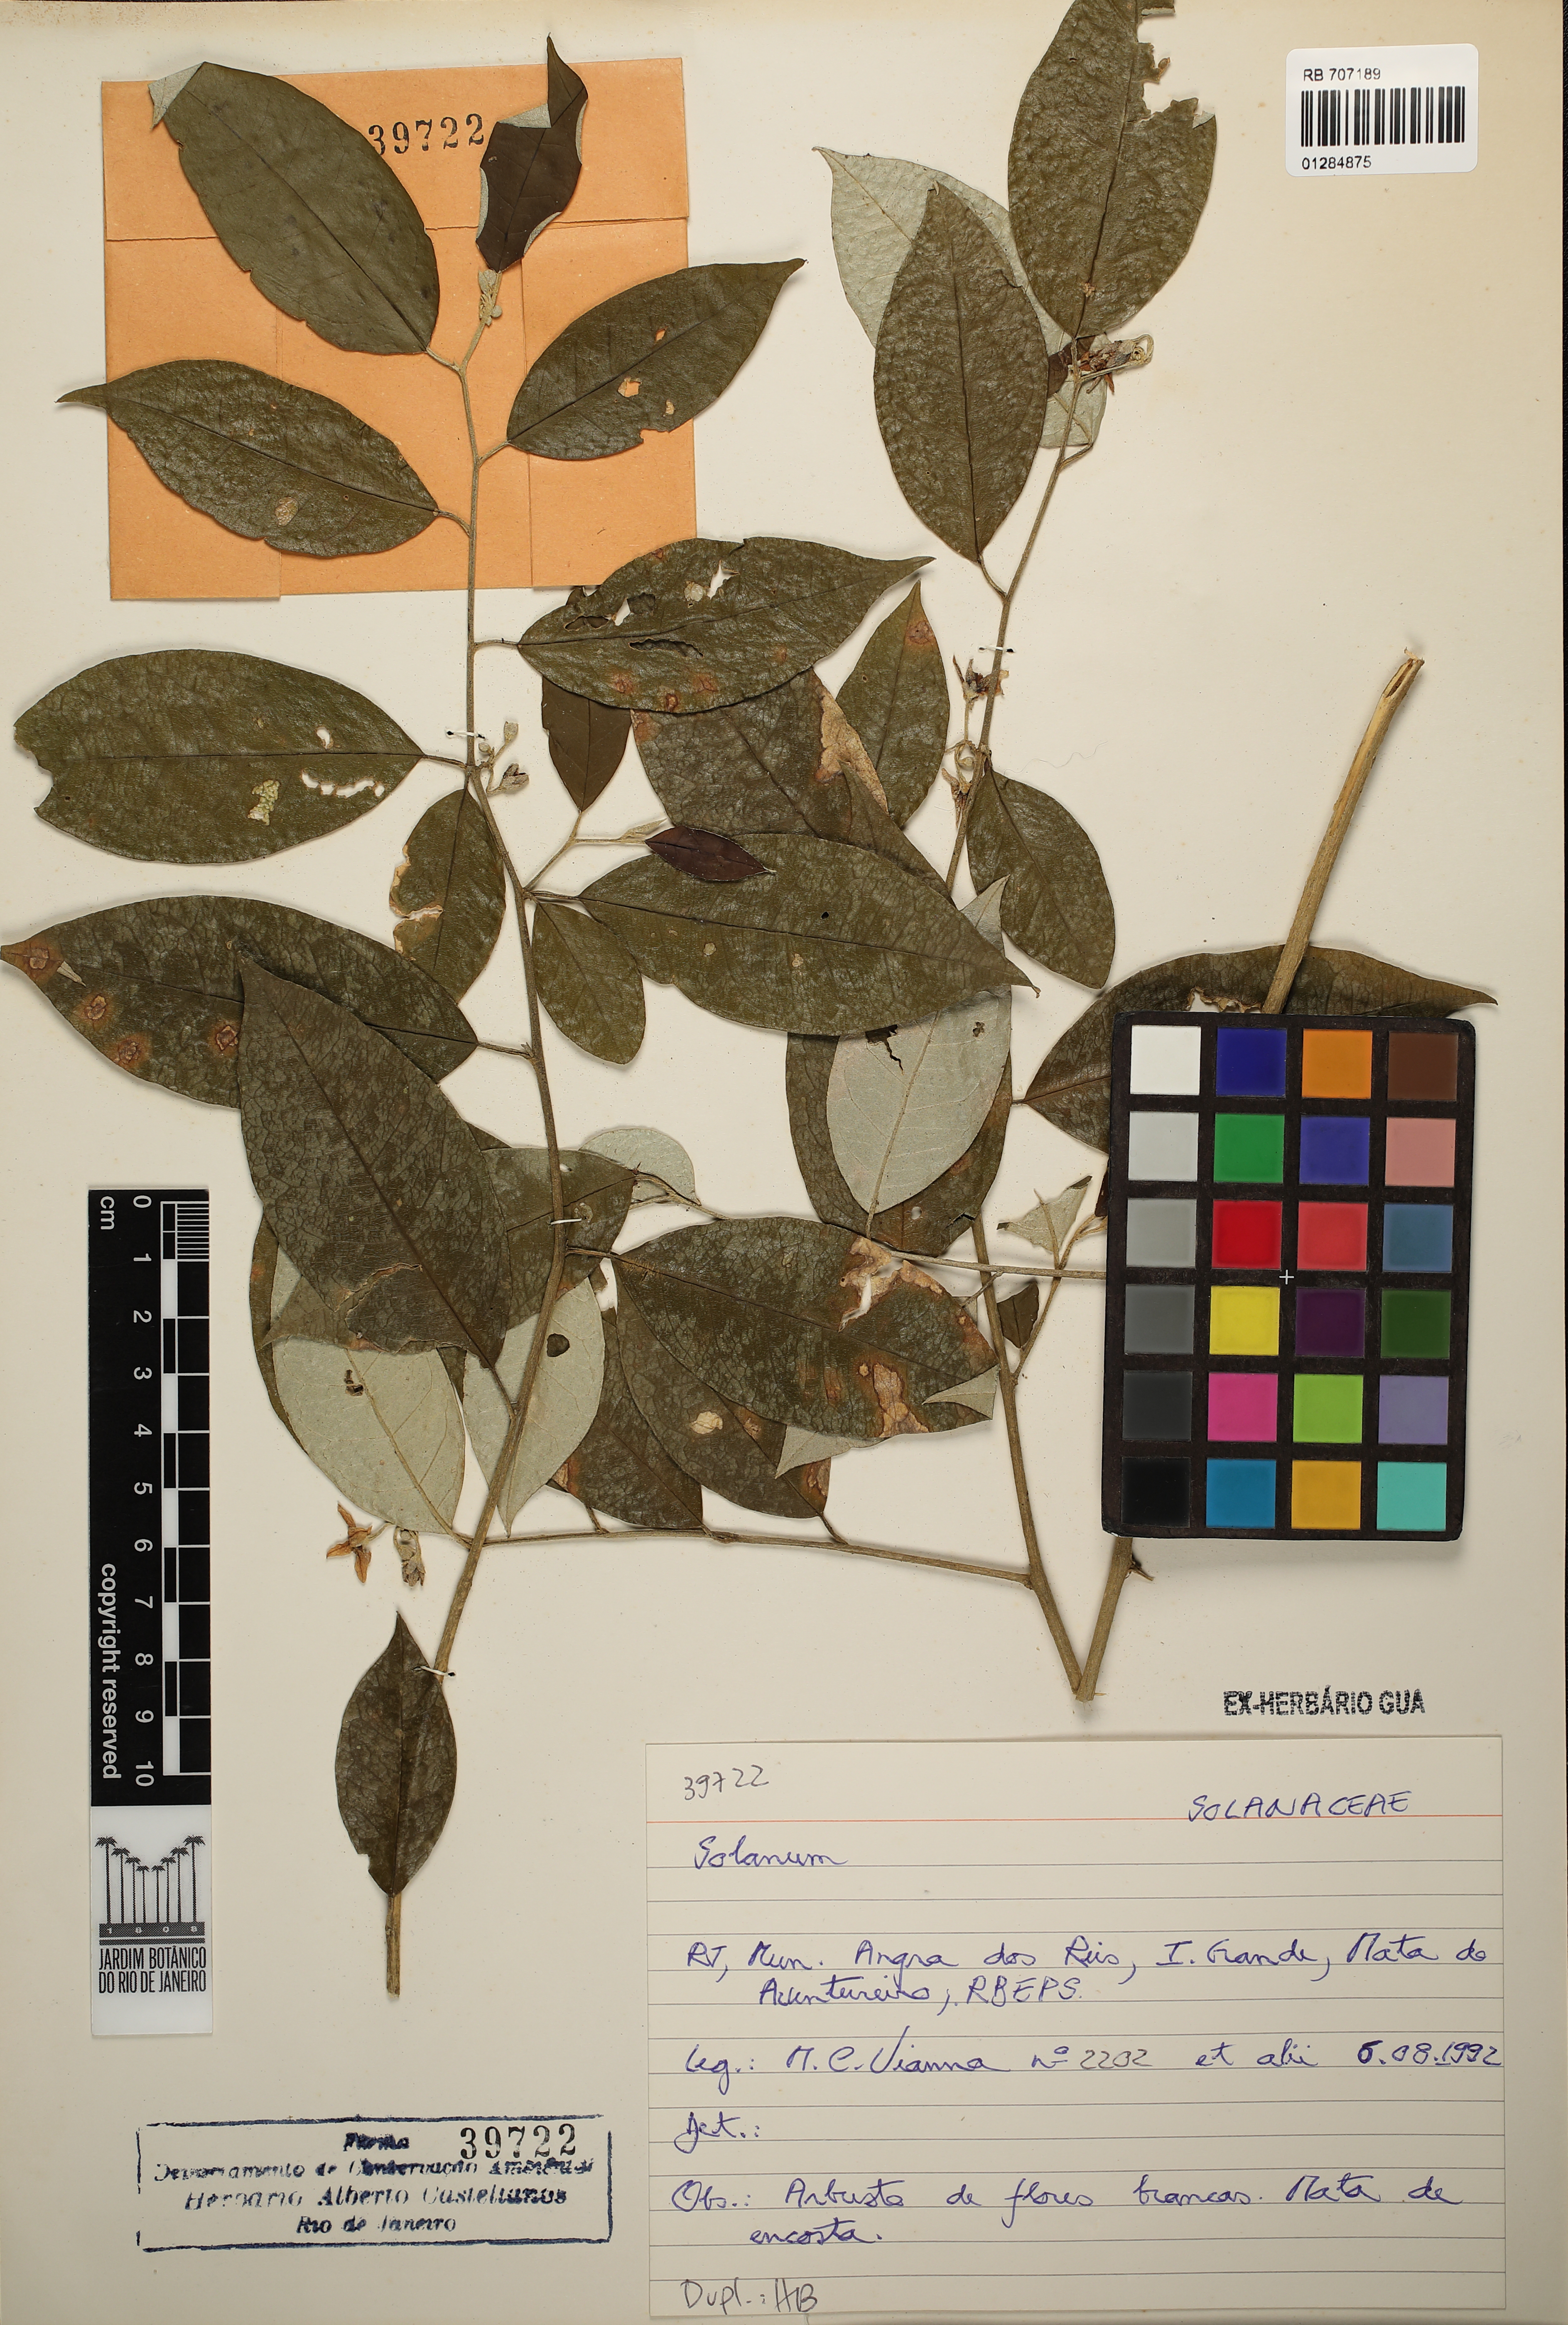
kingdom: Plantae
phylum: Tracheophyta
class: Magnoliopsida
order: Solanales
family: Solanaceae
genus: Solanum
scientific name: Solanum
